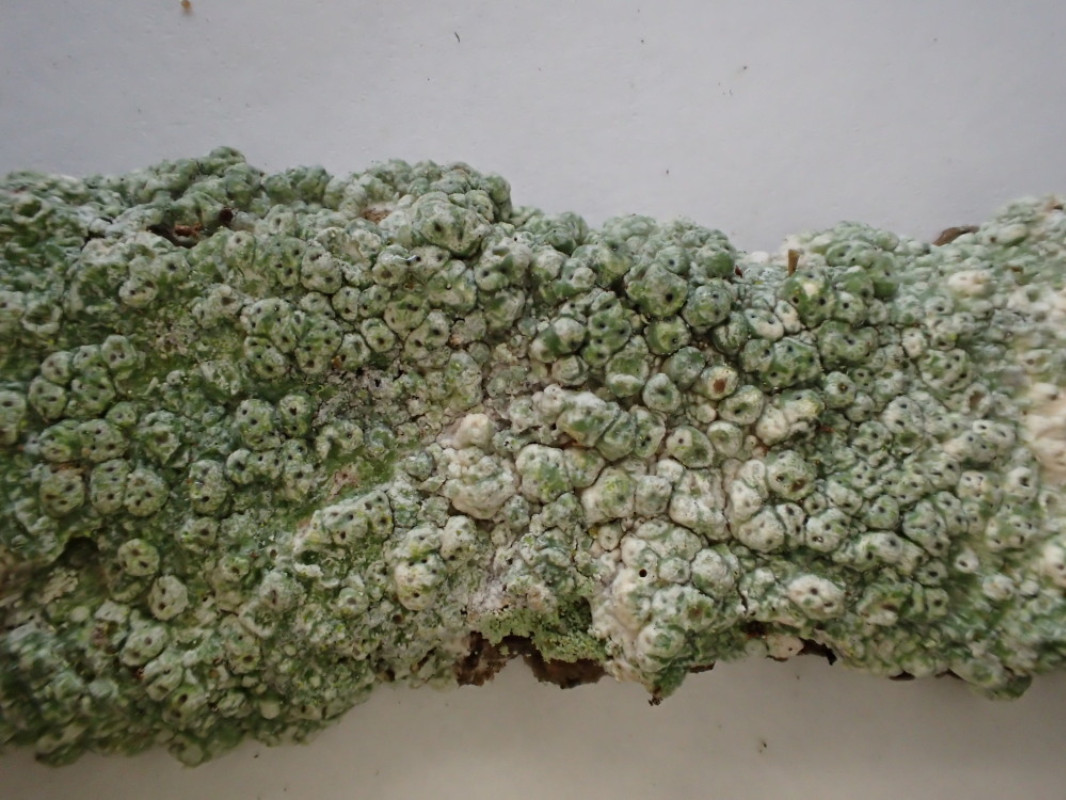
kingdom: Fungi
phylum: Ascomycota
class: Lecanoromycetes
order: Pertusariales
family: Pertusariaceae
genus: Pertusaria
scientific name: Pertusaria pertusa
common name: almindelig prikvortelav
